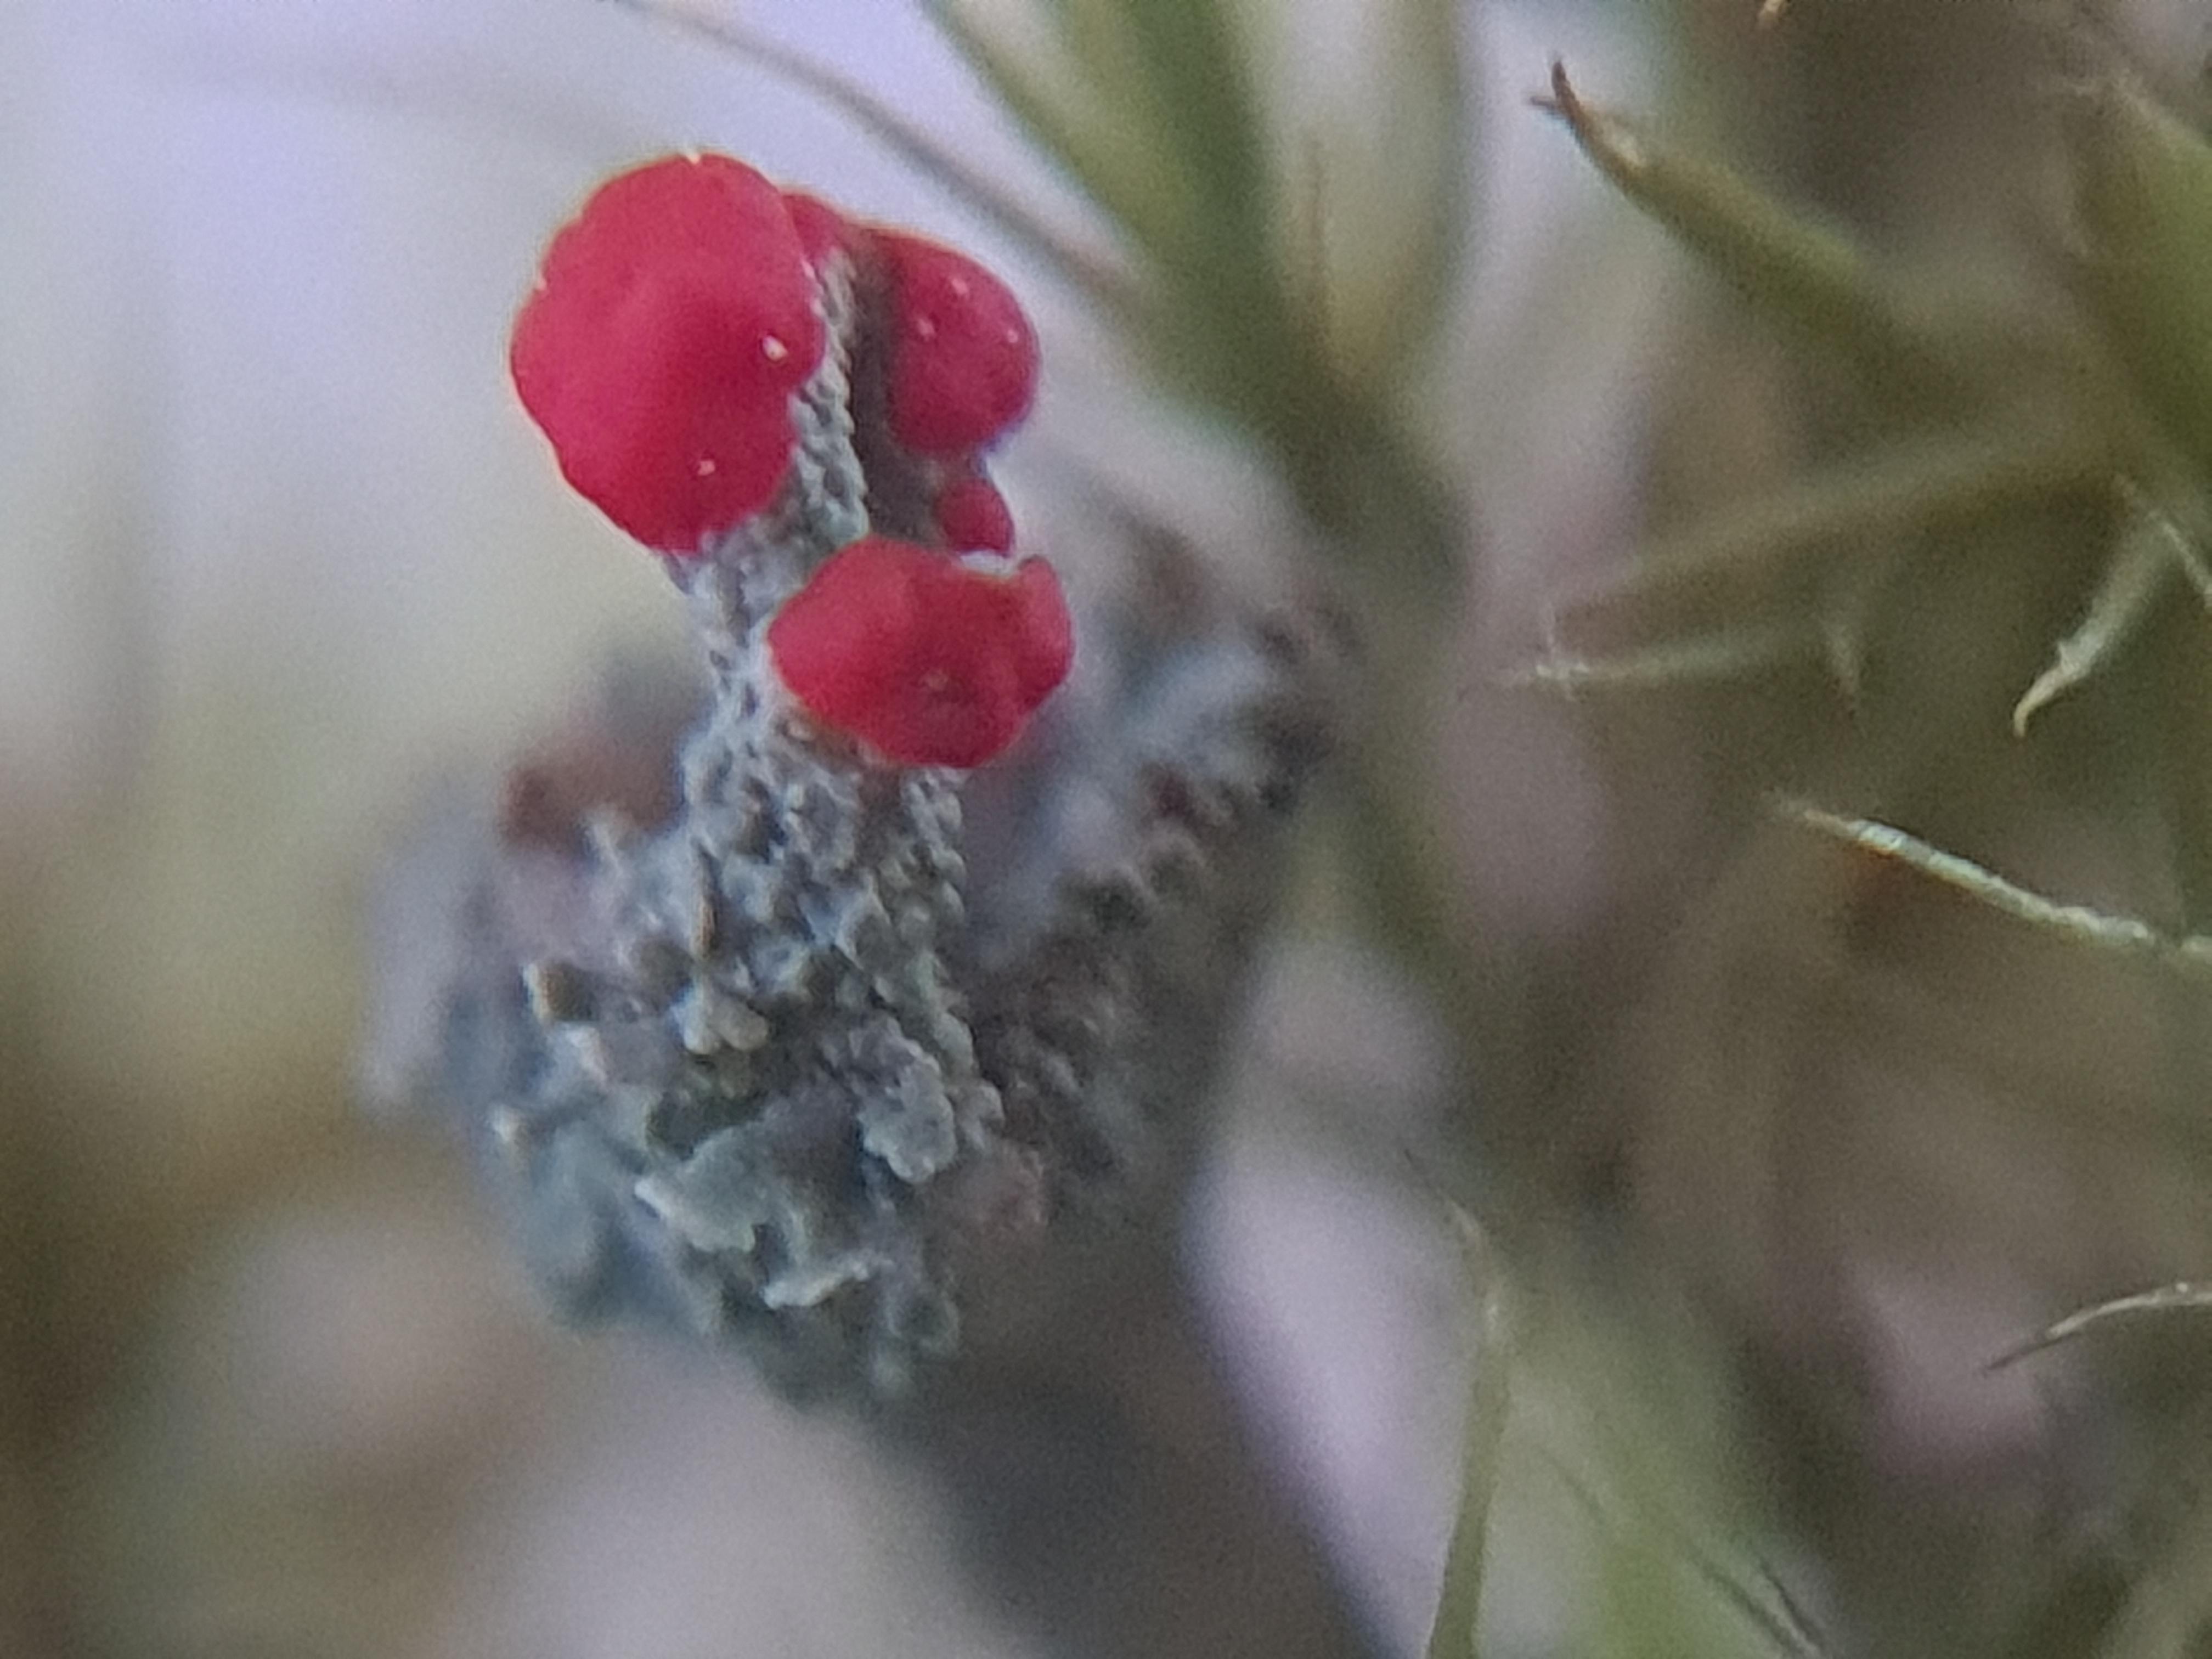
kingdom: Fungi
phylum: Ascomycota
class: Lecanoromycetes
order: Lecanorales
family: Cladoniaceae
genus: Cladonia
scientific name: Cladonia diversa
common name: rød bægerlav
